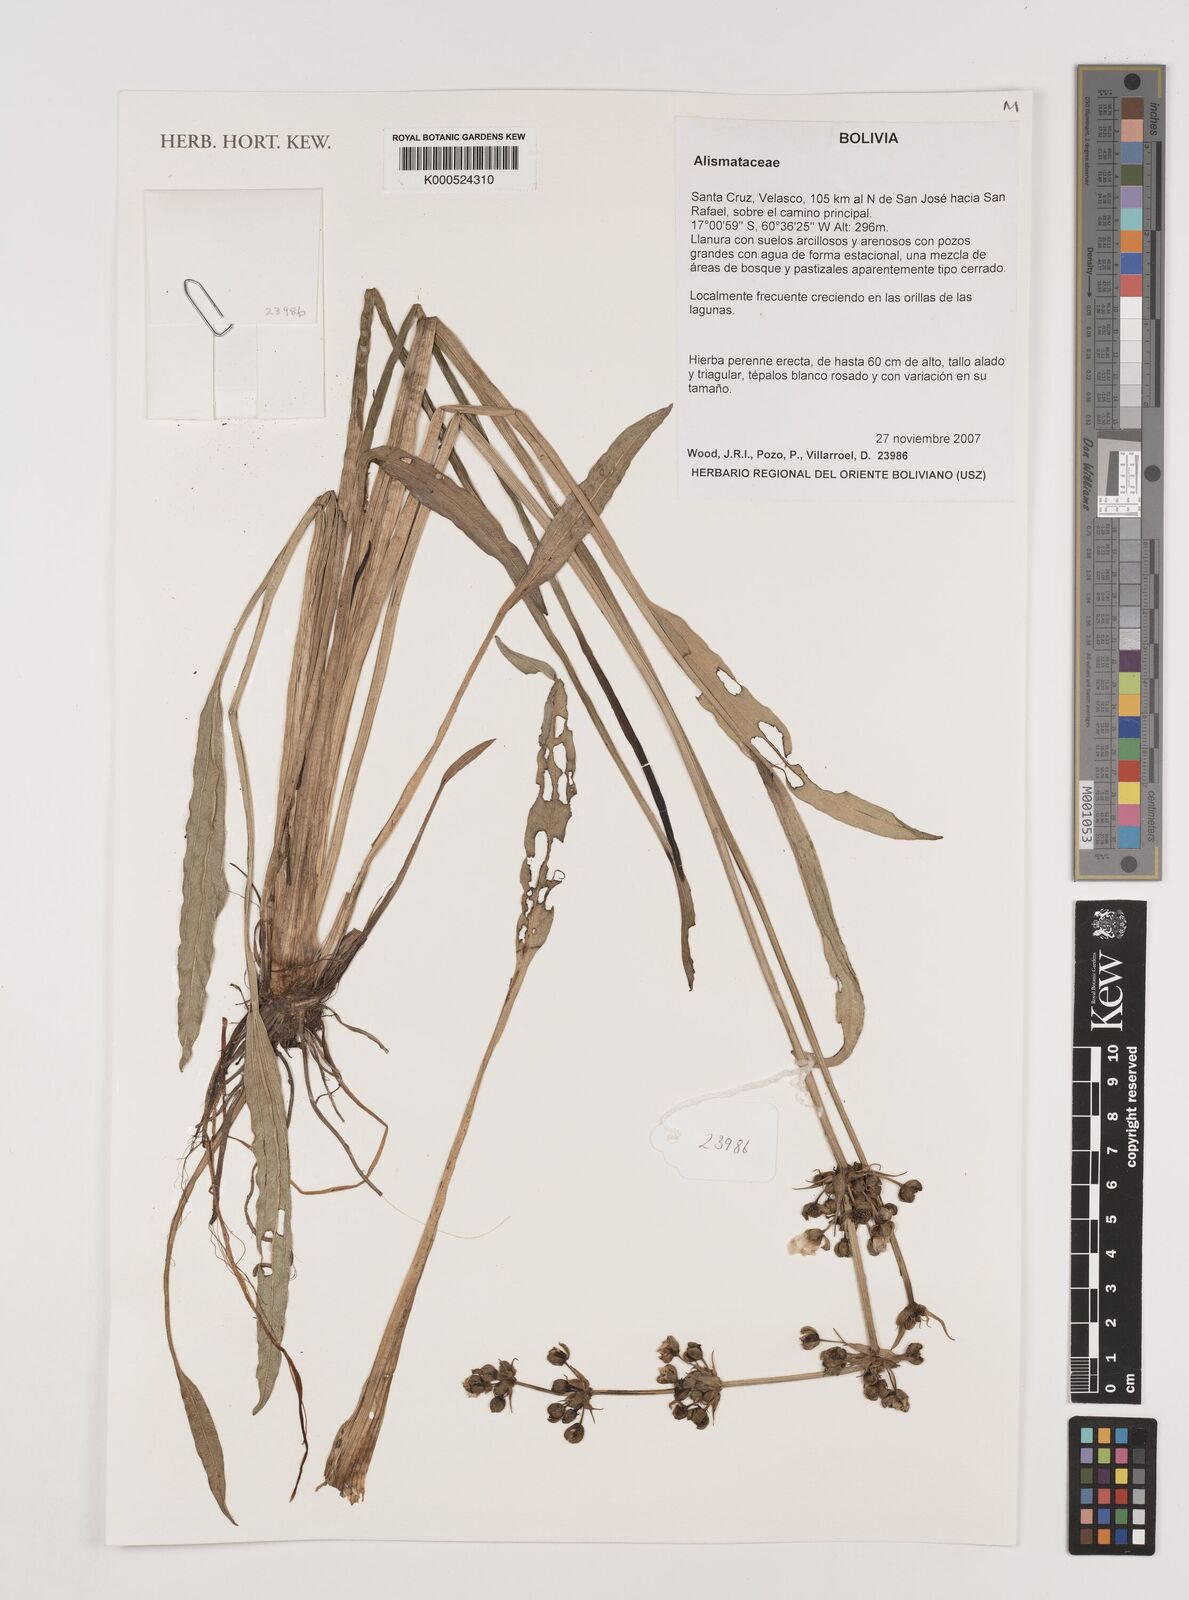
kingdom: Plantae
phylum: Tracheophyta
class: Liliopsida
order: Alismatales
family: Alismataceae
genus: Echinodorus
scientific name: Echinodorus
